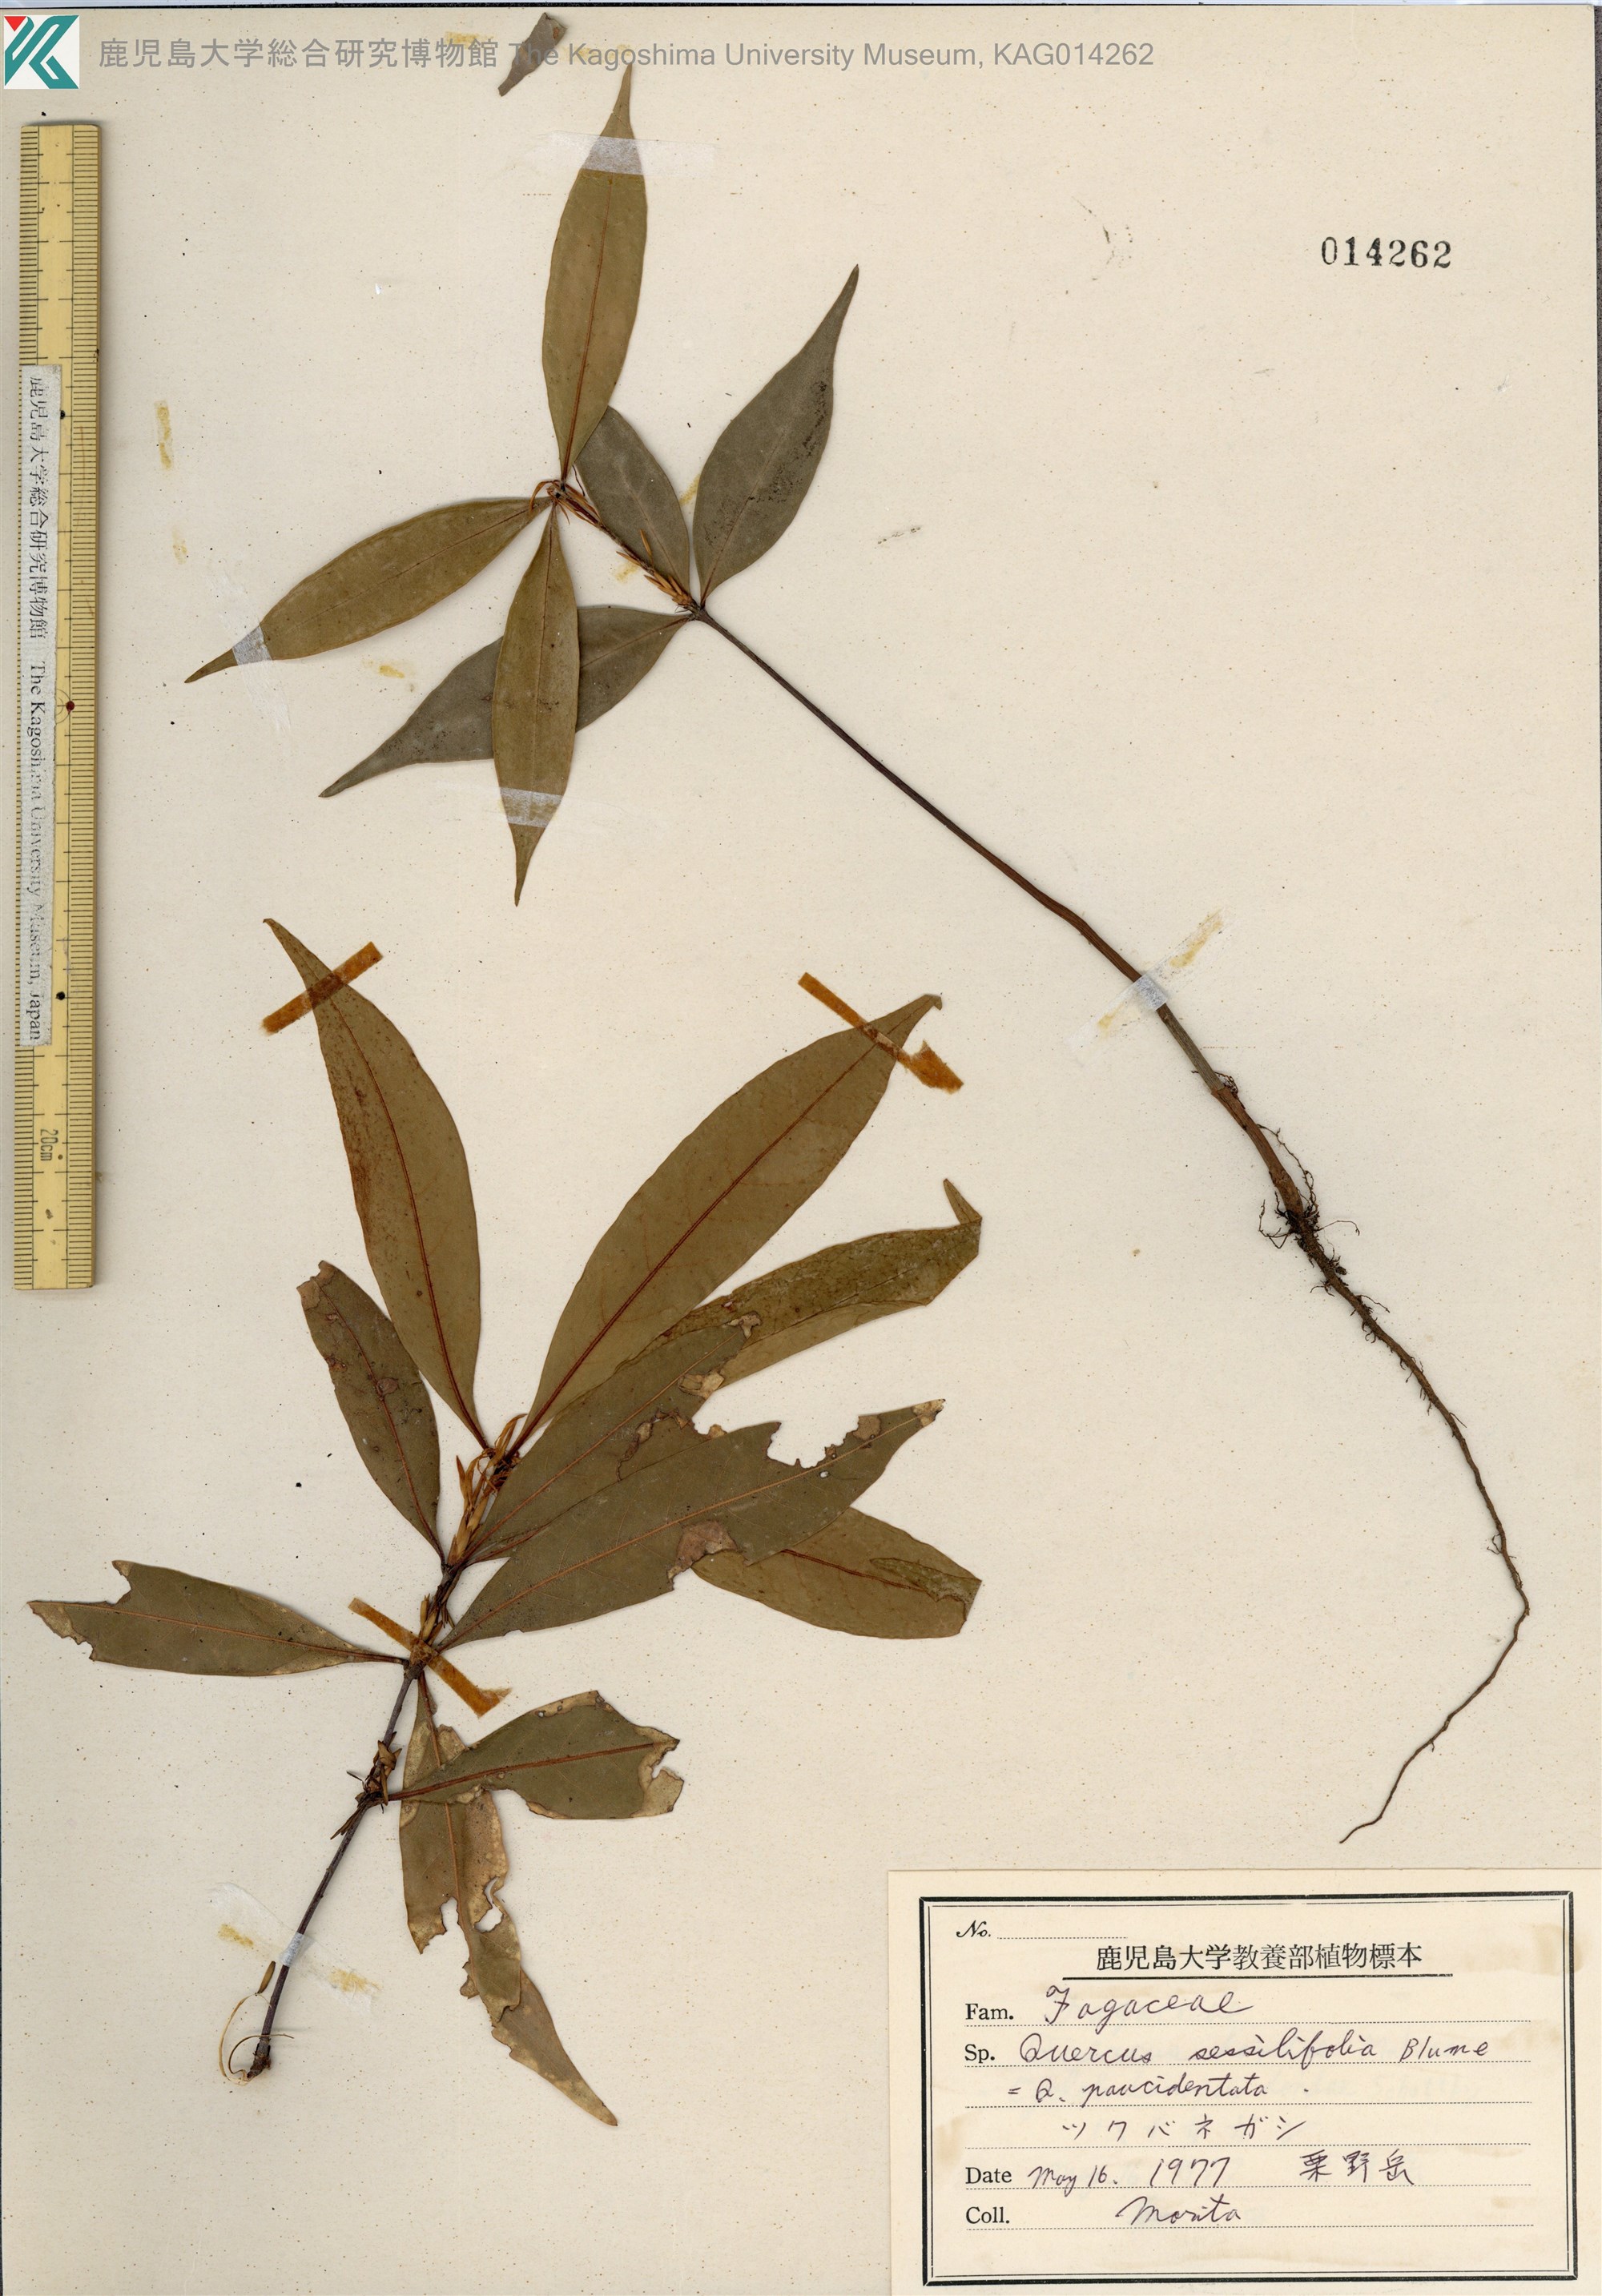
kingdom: Plantae
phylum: Tracheophyta
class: Magnoliopsida
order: Fagales
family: Fagaceae
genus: Quercus
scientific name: Quercus sessilifolia
